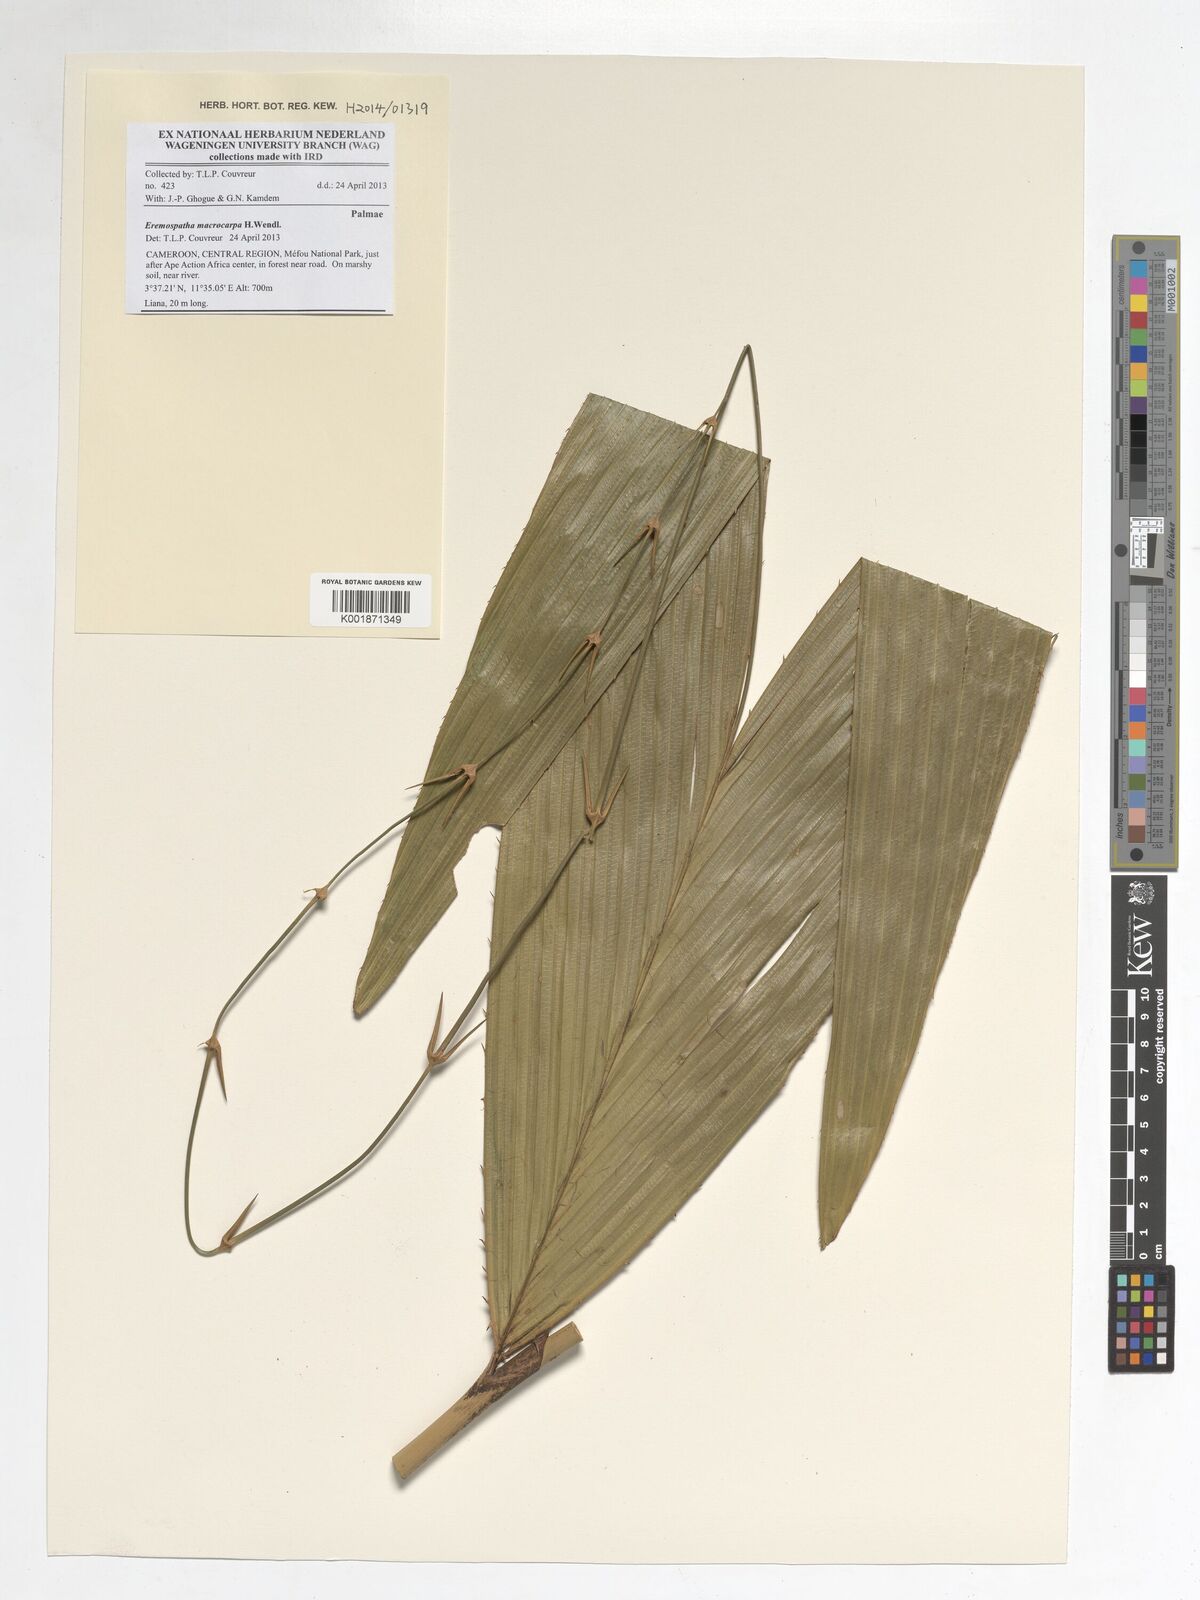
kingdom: Plantae
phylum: Tracheophyta
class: Liliopsida
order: Arecales
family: Arecaceae
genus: Eremospatha
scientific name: Eremospatha macrocarpa
